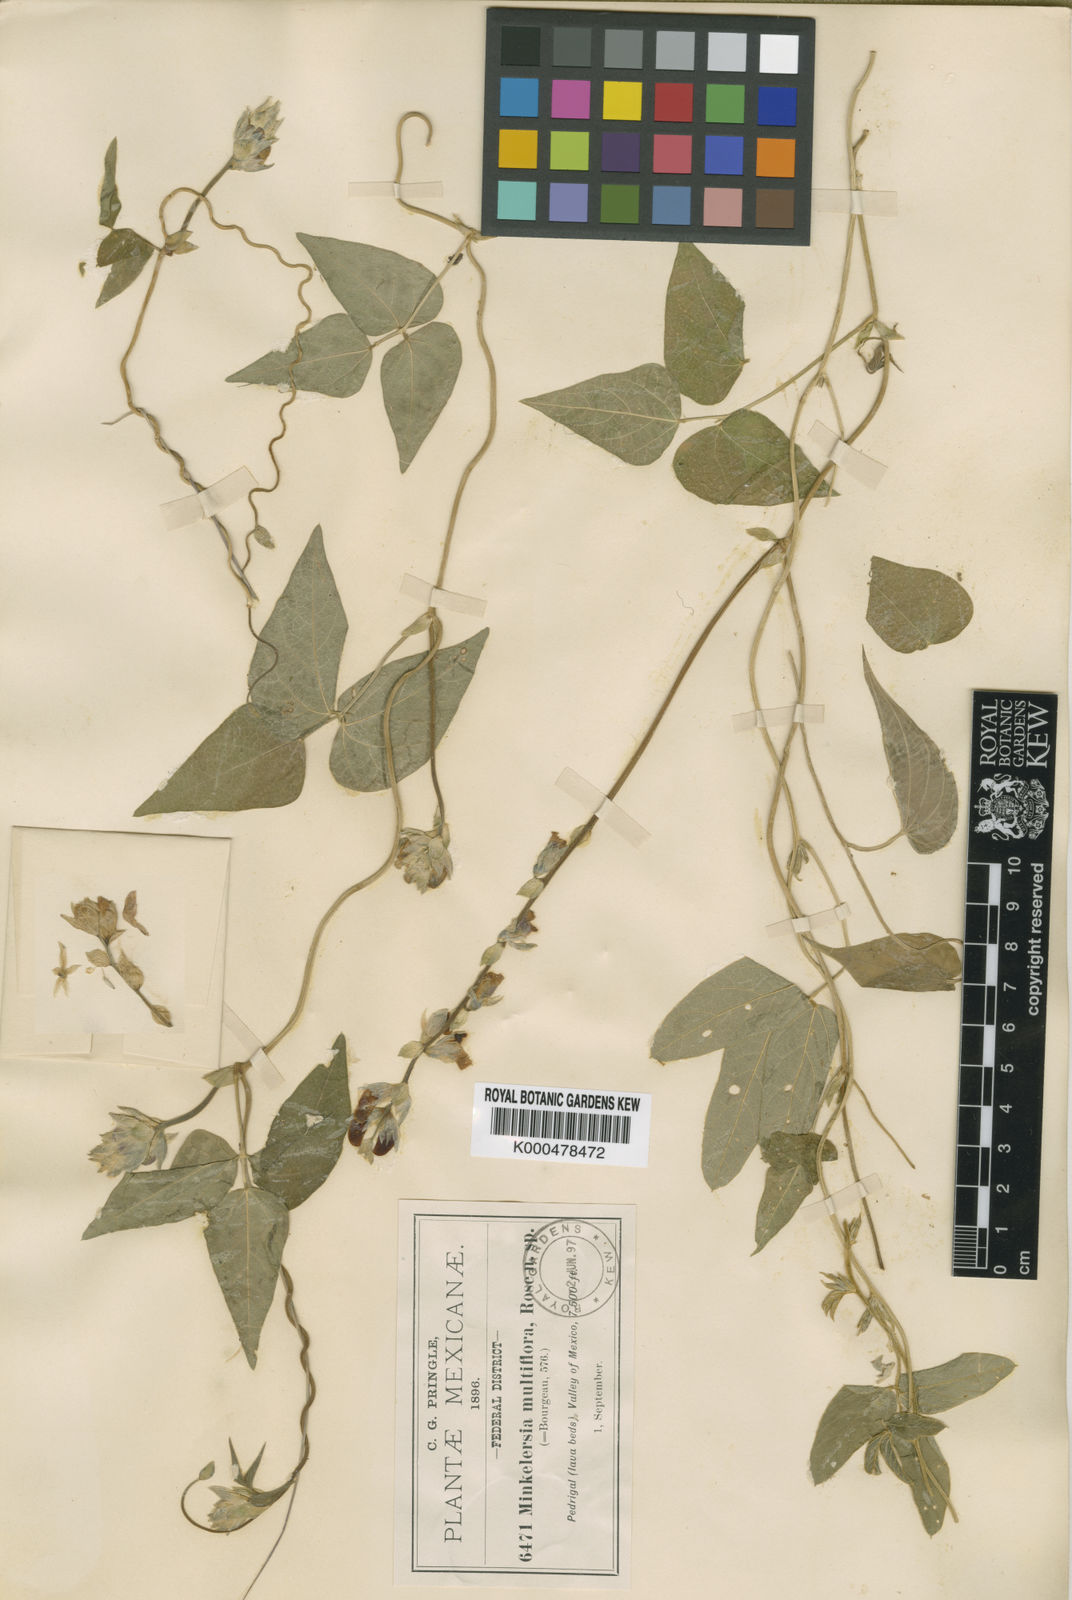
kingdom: Plantae
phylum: Tracheophyta
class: Magnoliopsida
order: Fabales
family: Fabaceae
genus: Phaseolus
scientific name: Phaseolus
